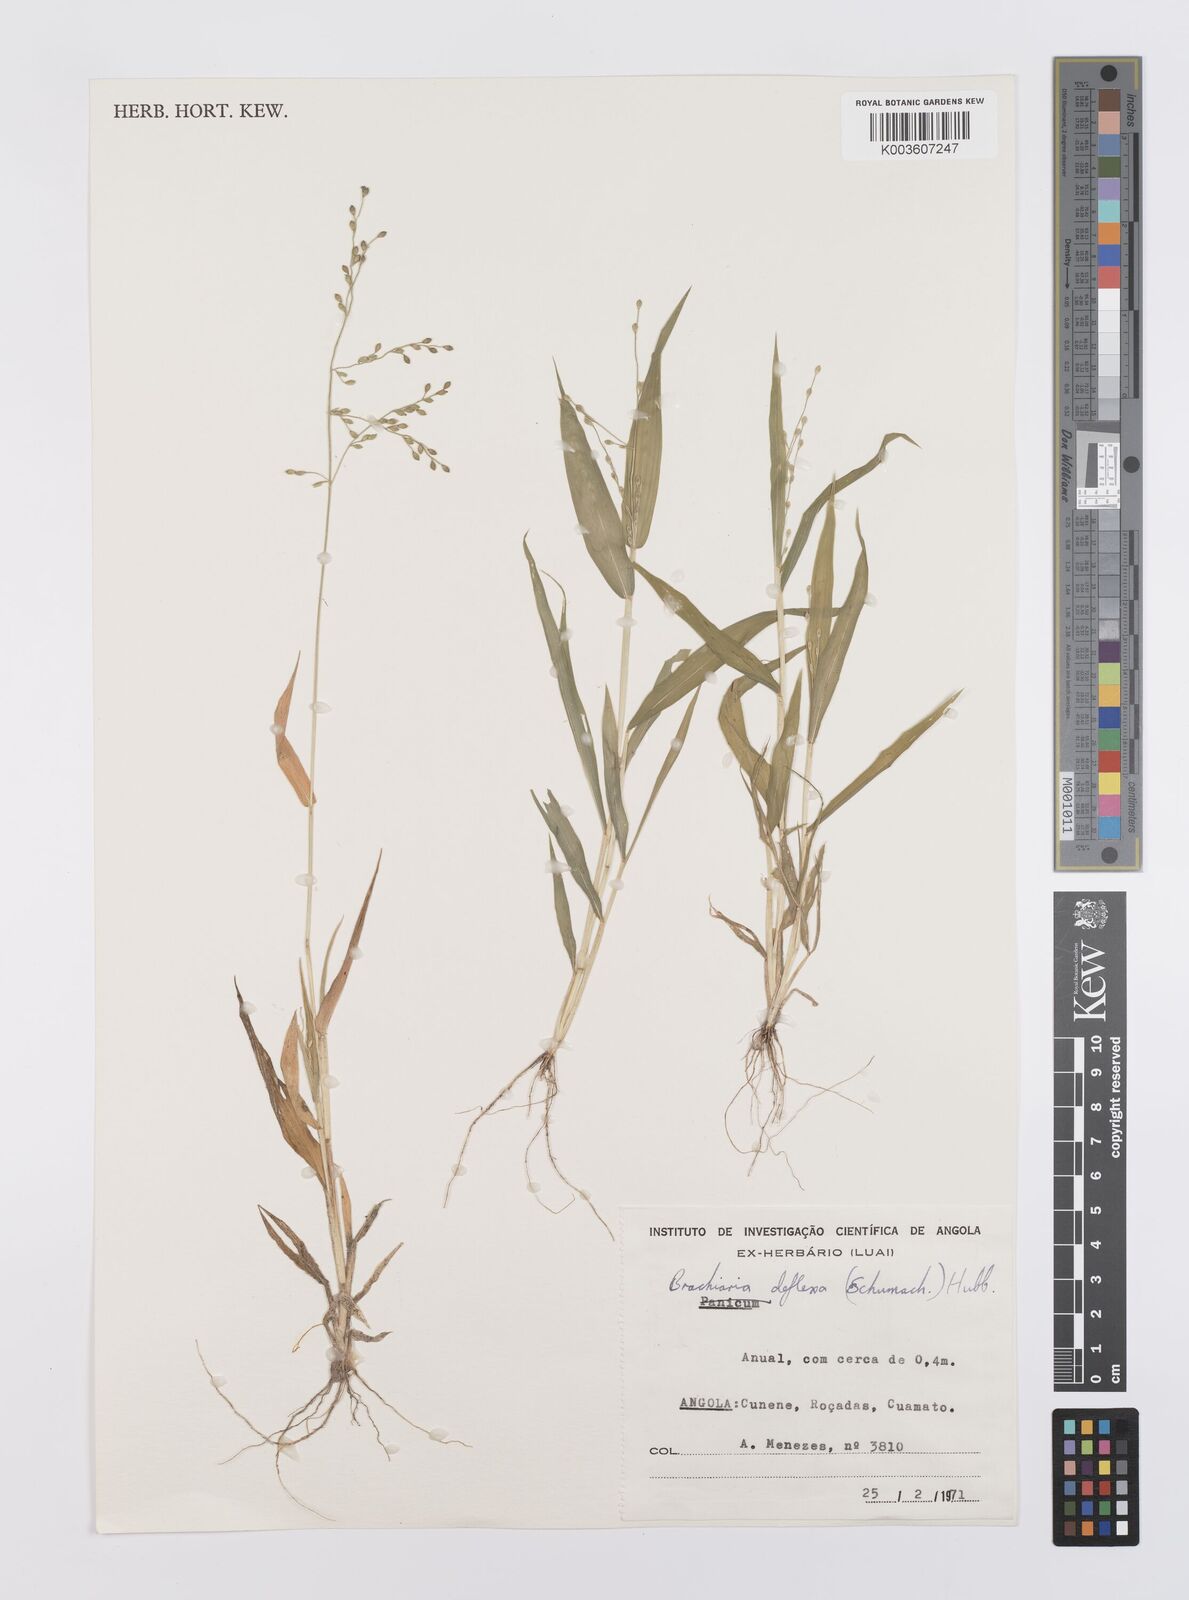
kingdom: Plantae
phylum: Tracheophyta
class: Liliopsida
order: Poales
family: Poaceae
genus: Urochloa
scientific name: Urochloa deflexa
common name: Guinea millet
